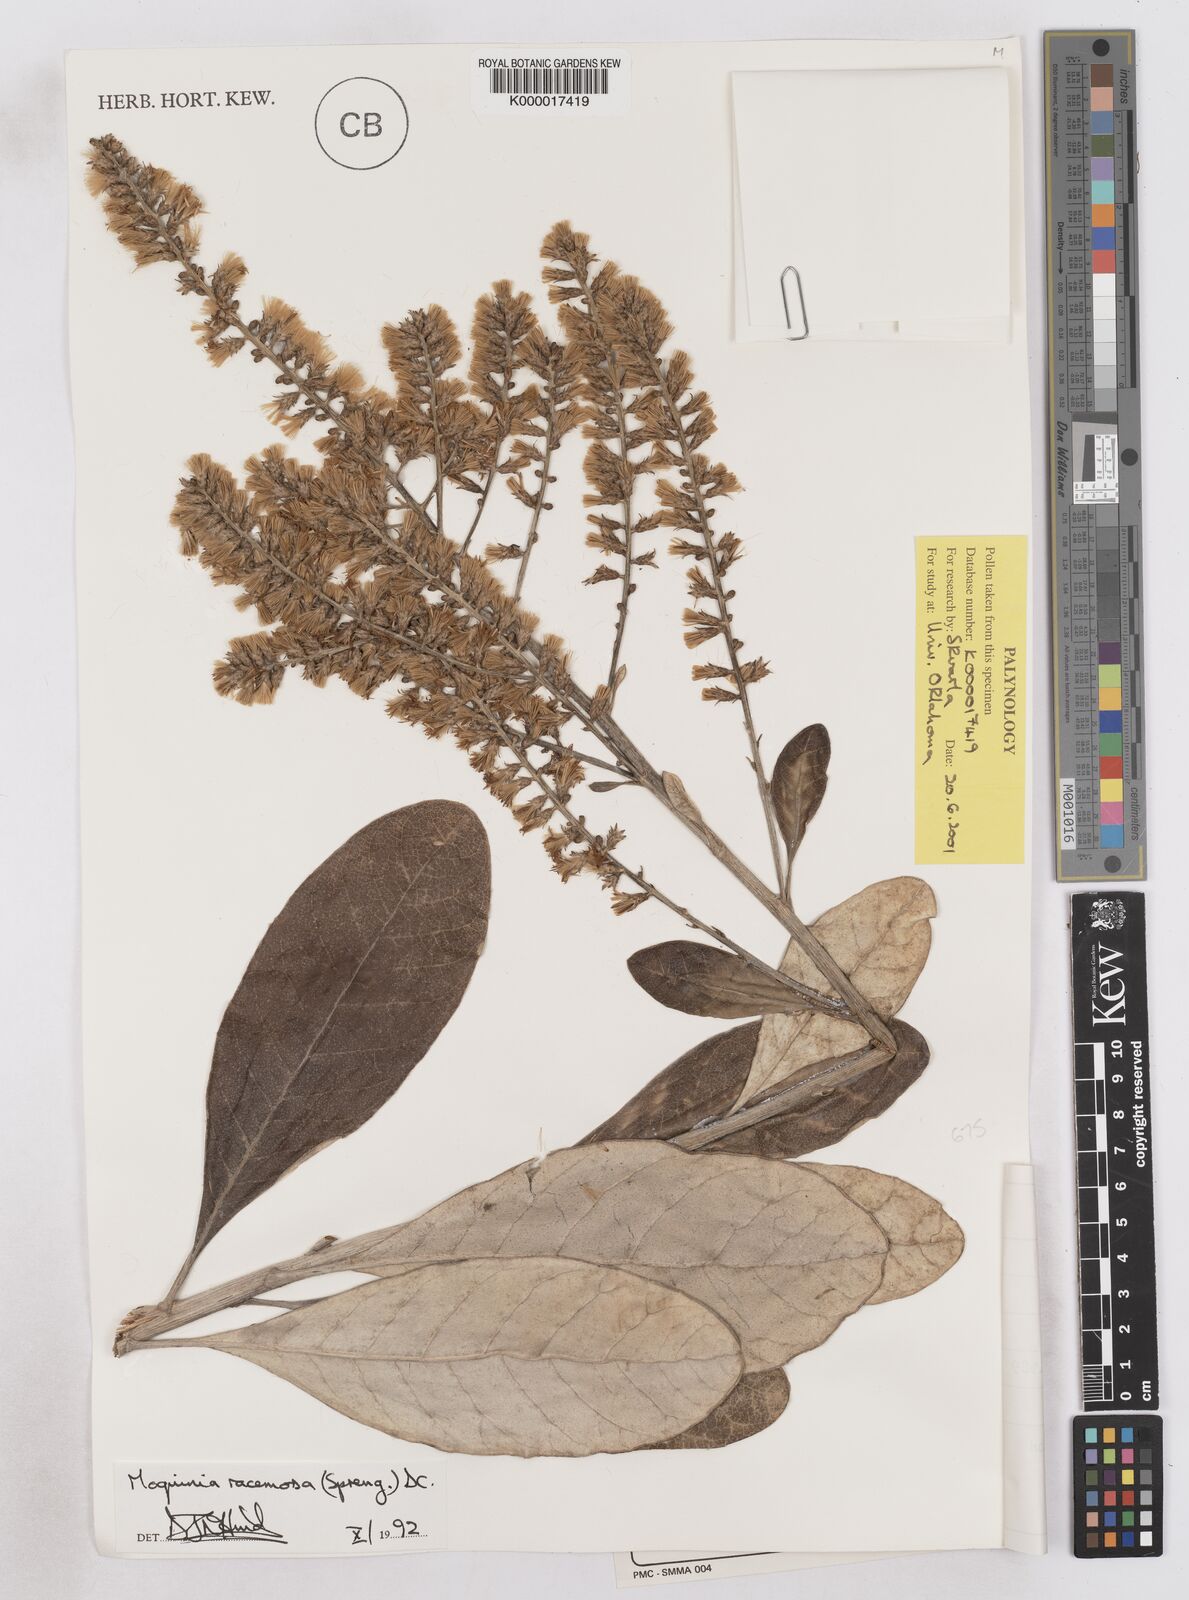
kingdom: Plantae
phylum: Tracheophyta
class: Magnoliopsida
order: Asterales
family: Asteraceae
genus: Moquinia
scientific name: Moquinia racemosa
